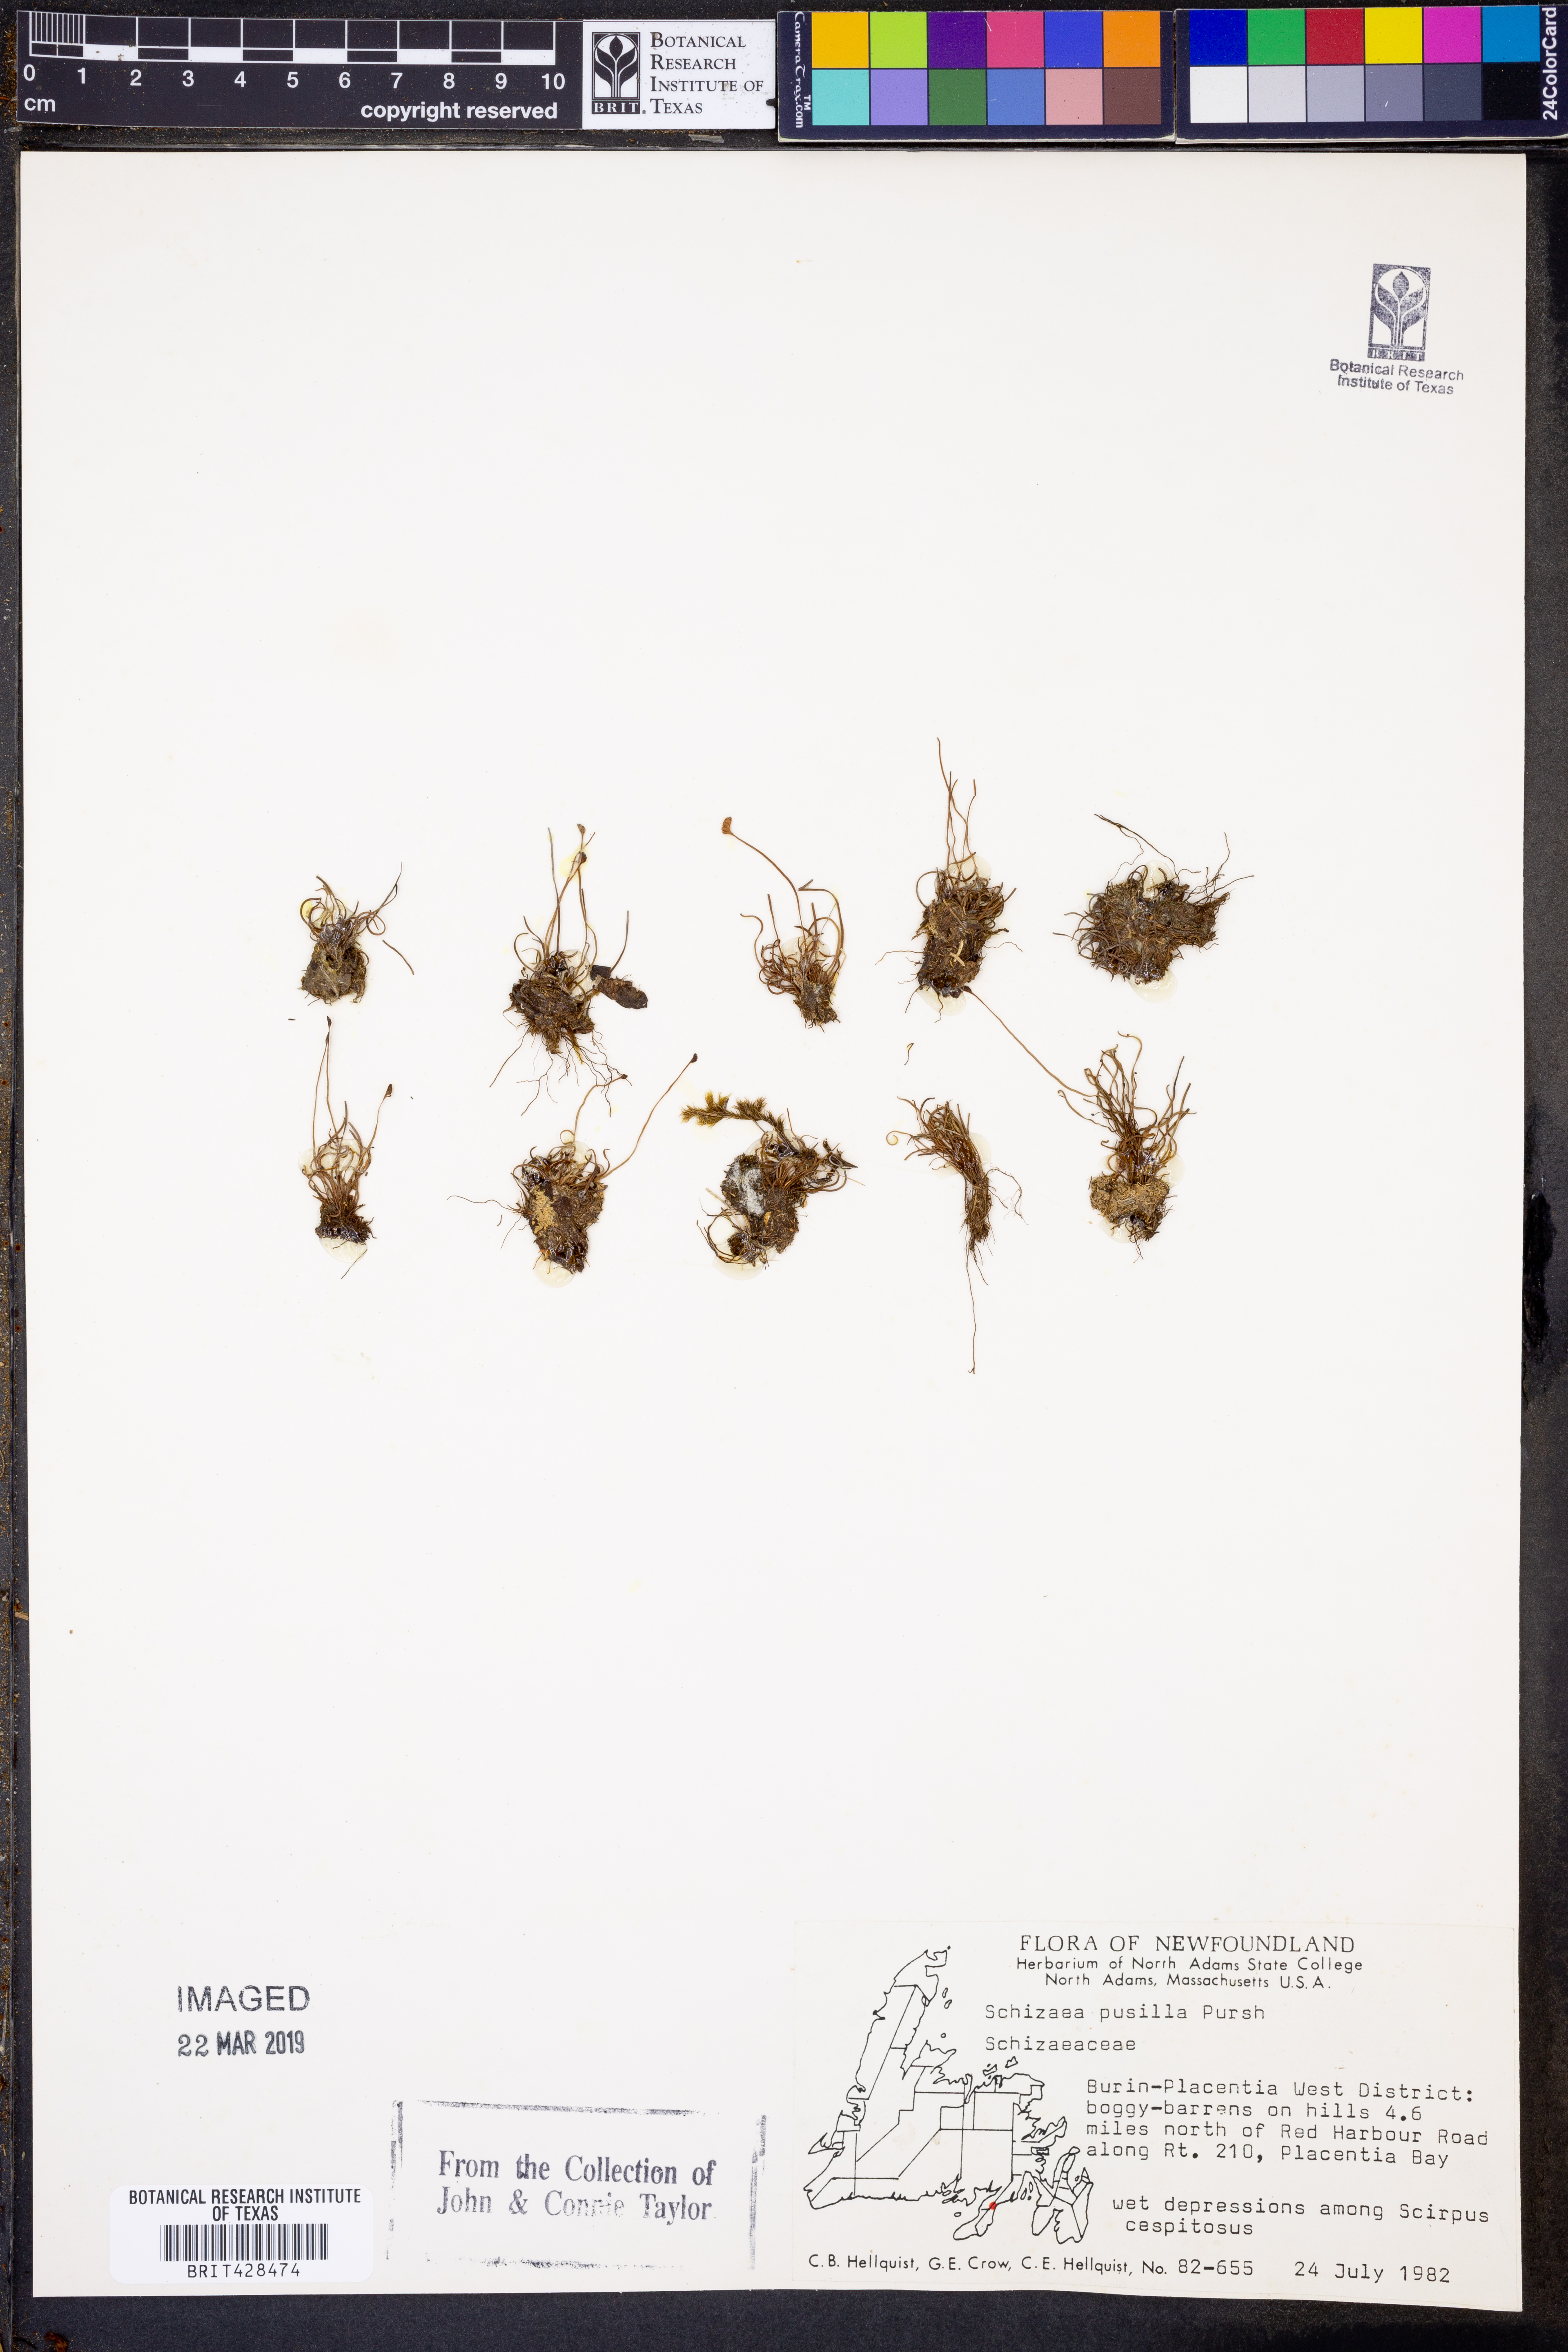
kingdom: Plantae
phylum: Tracheophyta
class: Polypodiopsida
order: Schizaeales
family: Schizaeaceae
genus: Schizaea
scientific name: Schizaea pusilla
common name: Curly-grass fern
